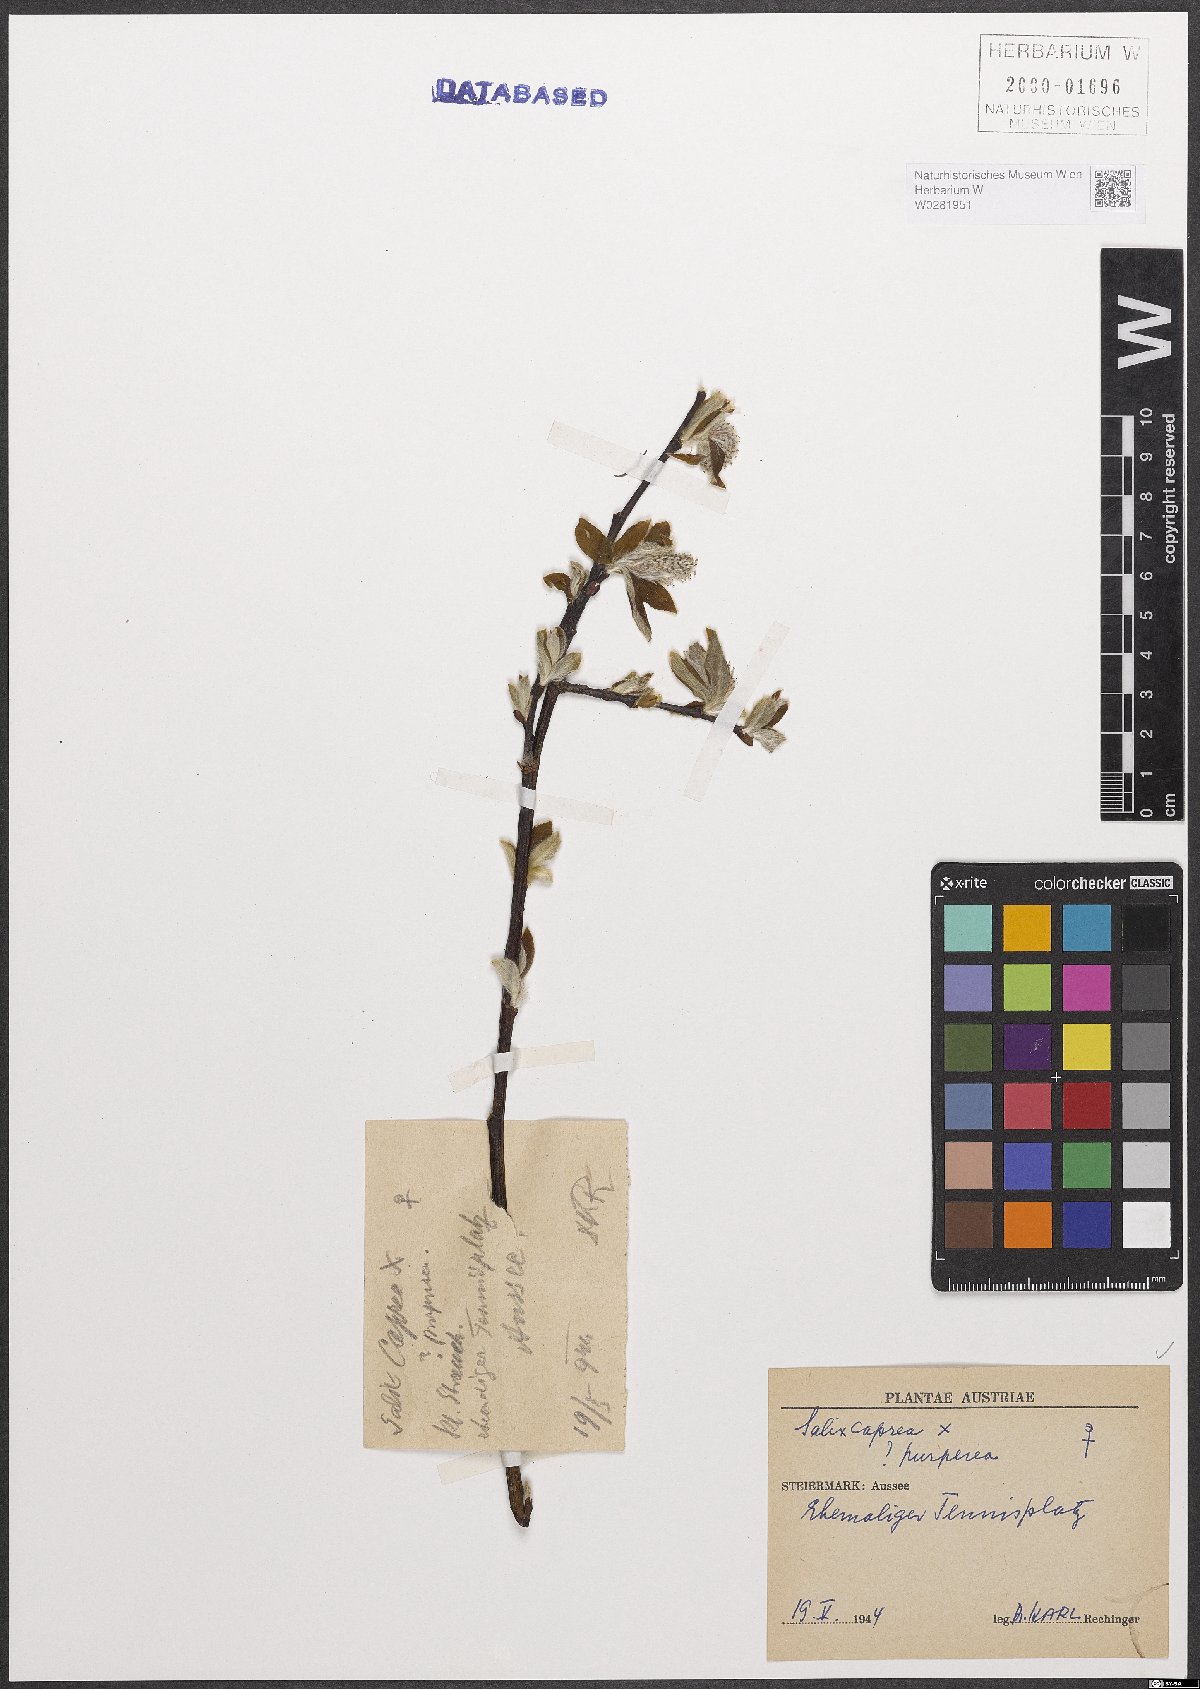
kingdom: Plantae
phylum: Tracheophyta
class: Magnoliopsida
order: Malpighiales
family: Salicaceae
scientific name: Salicaceae
